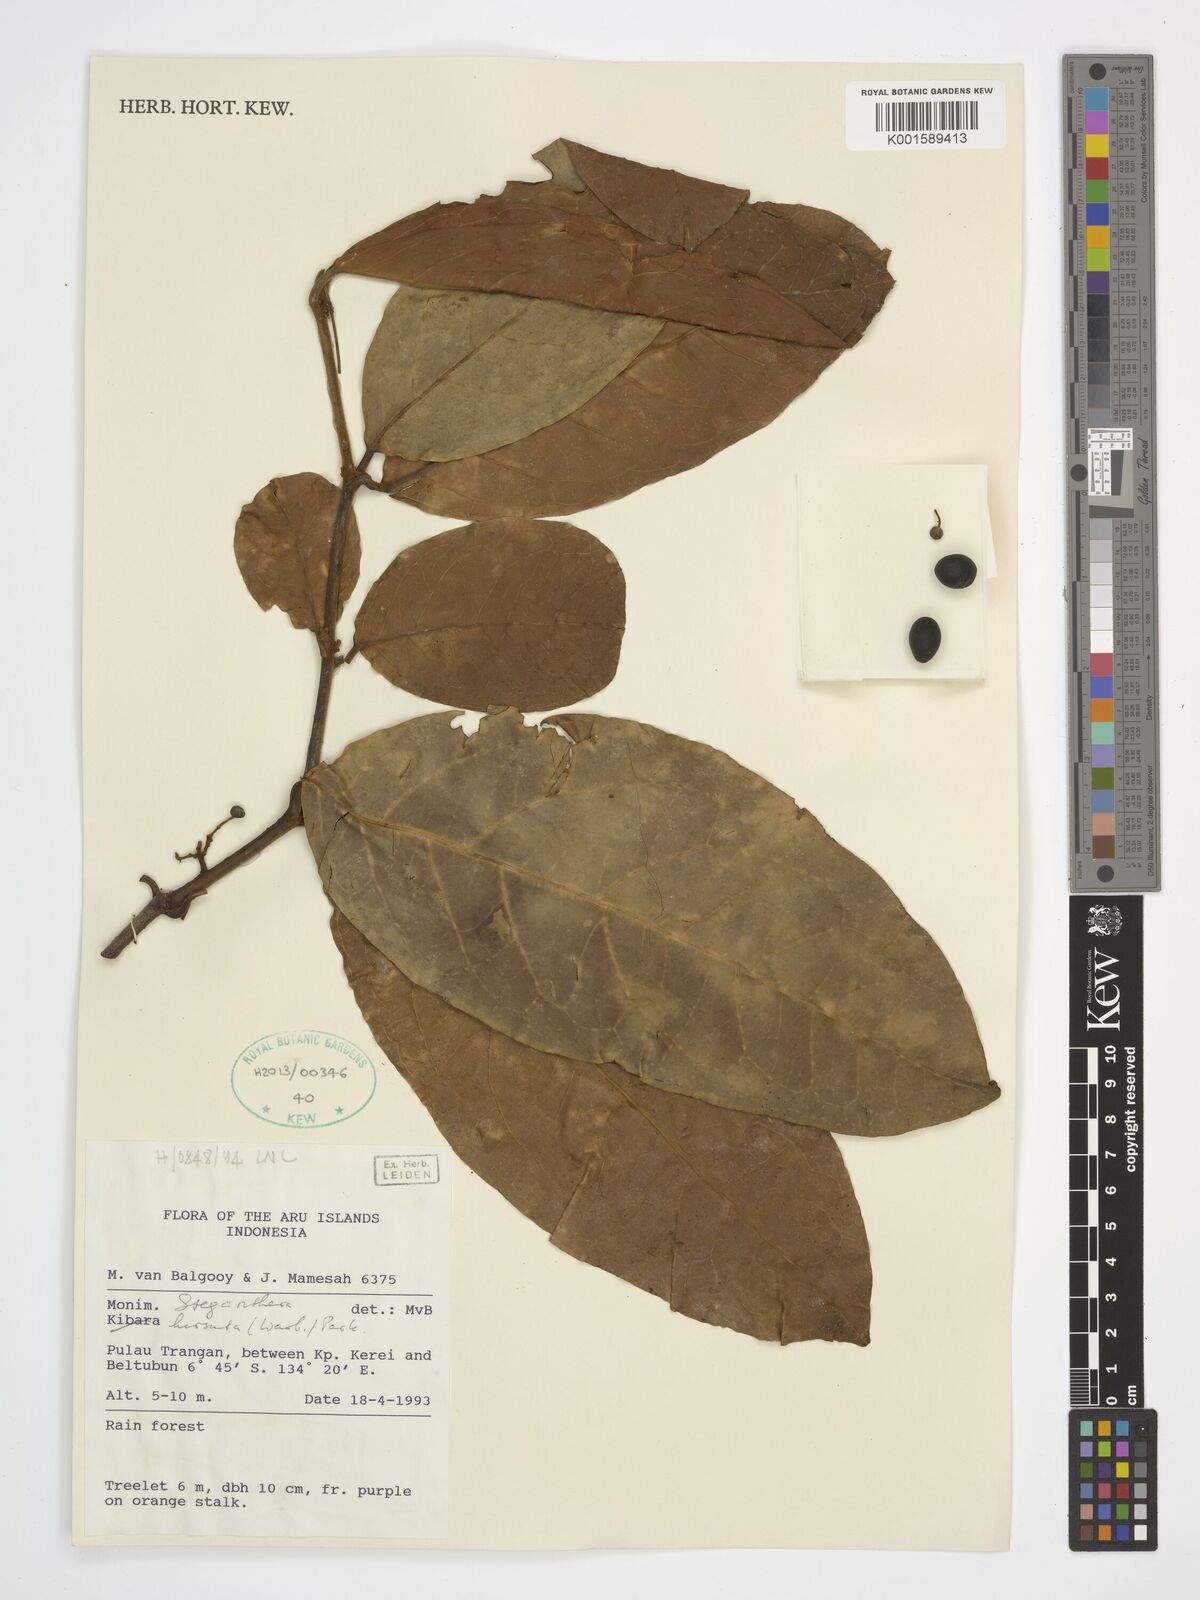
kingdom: Plantae
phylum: Tracheophyta
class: Magnoliopsida
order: Laurales
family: Monimiaceae
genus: Steganthera
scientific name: Steganthera hirsuta
